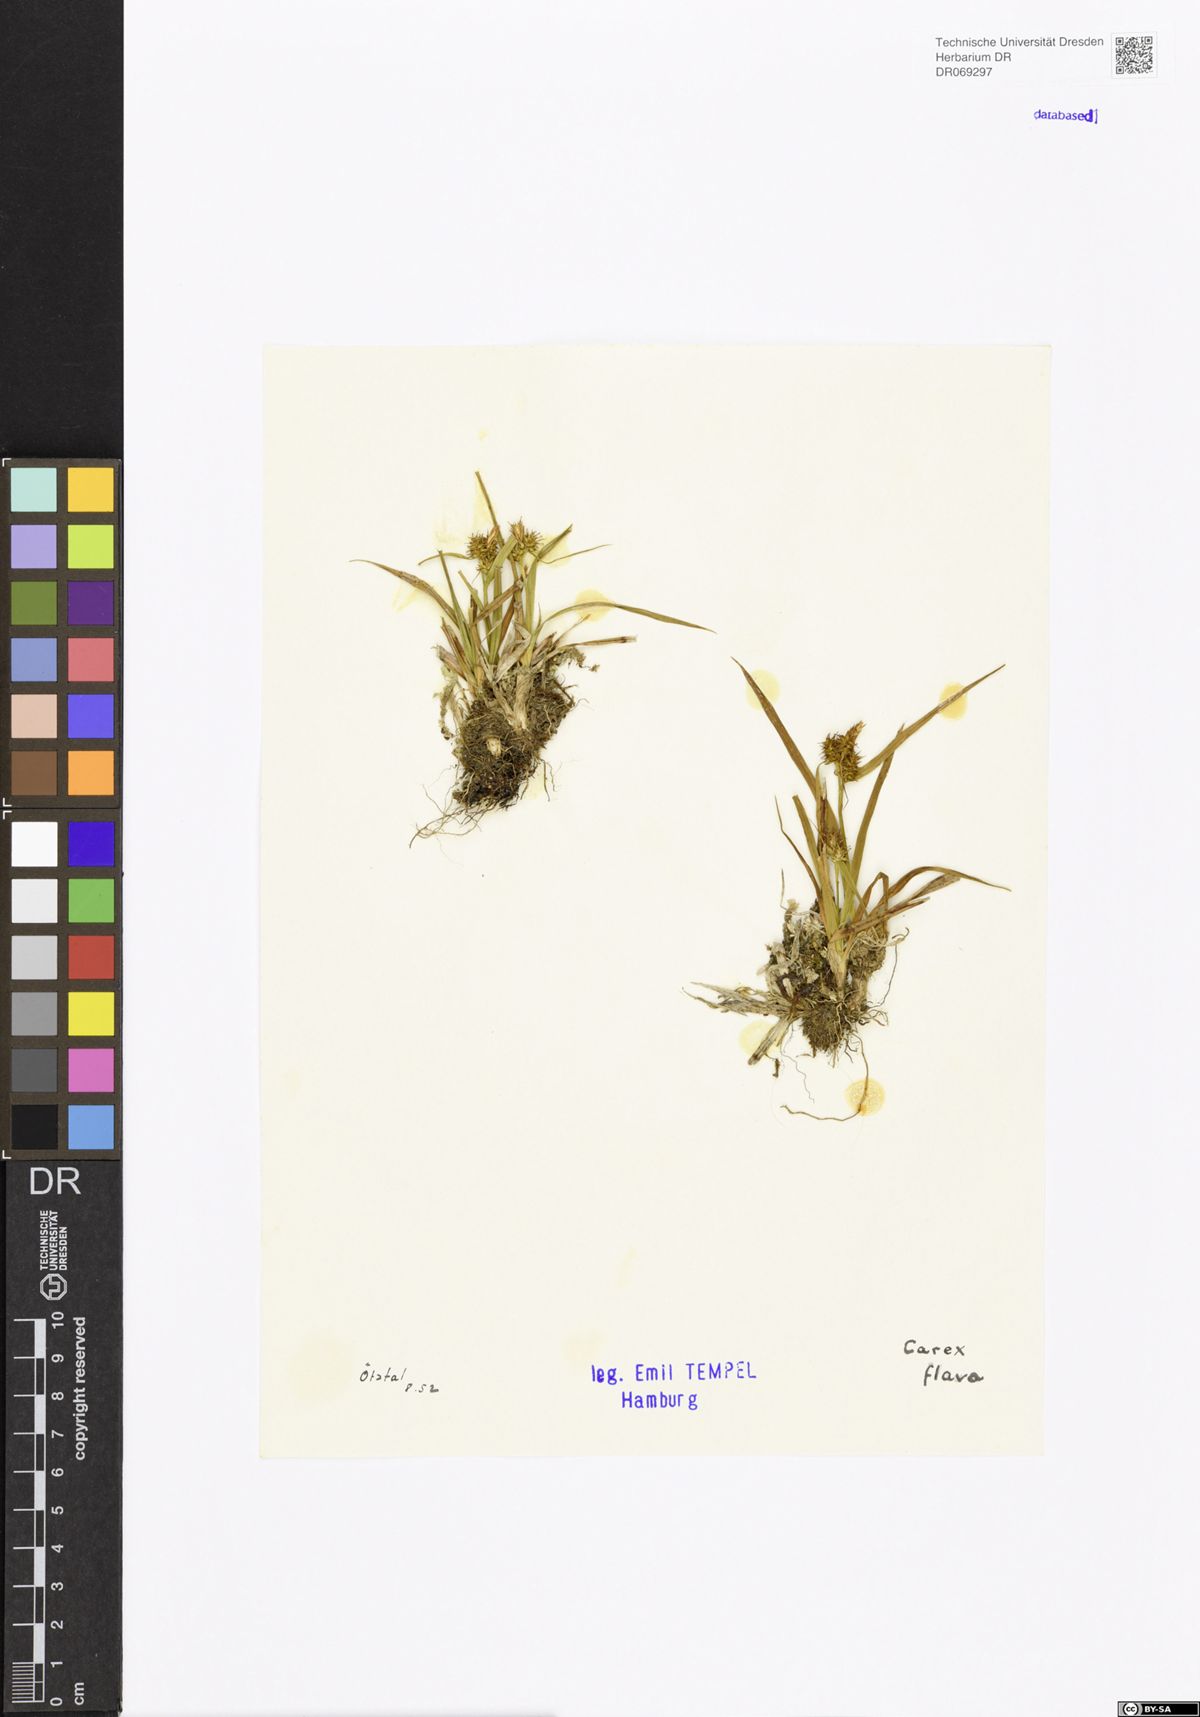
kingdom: Plantae
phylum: Tracheophyta
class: Liliopsida
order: Poales
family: Cyperaceae
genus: Carex
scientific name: Carex flava
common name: Large yellow-sedge
